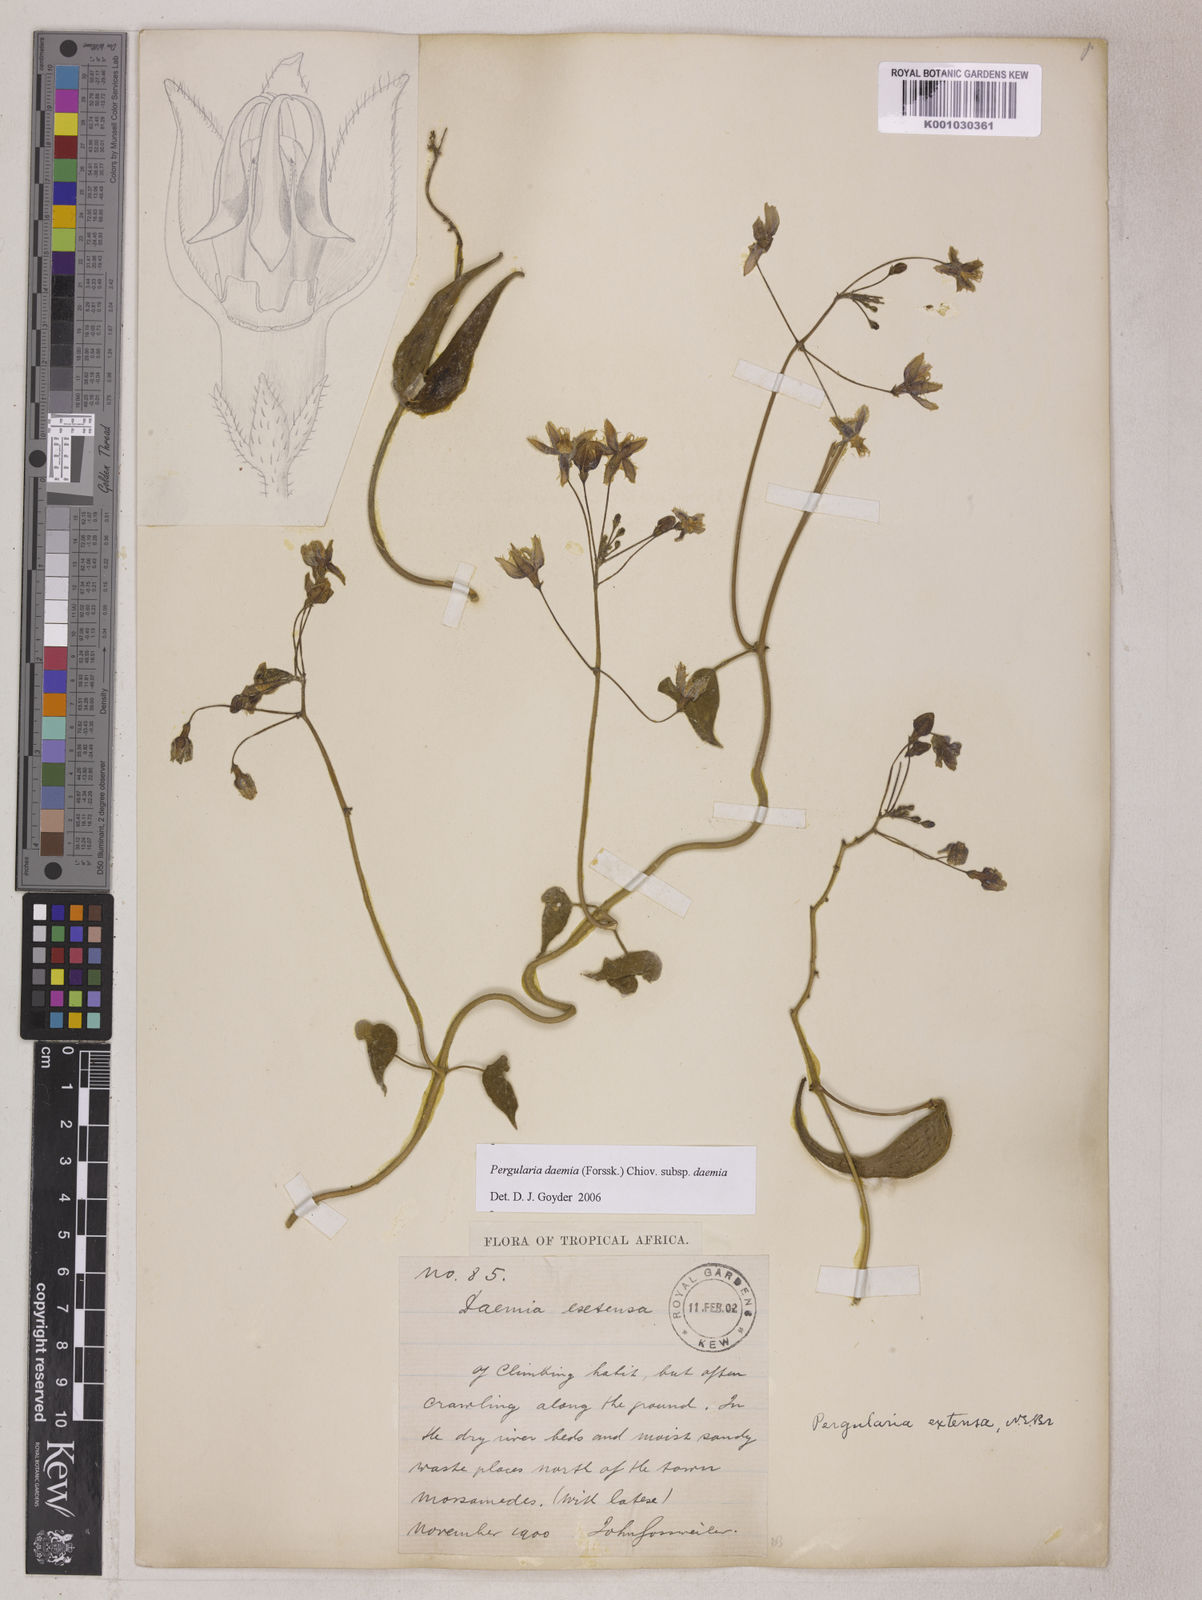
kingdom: Plantae
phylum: Tracheophyta
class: Magnoliopsida
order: Gentianales
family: Apocynaceae
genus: Pergularia
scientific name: Pergularia daemia
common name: Trellis-vine
